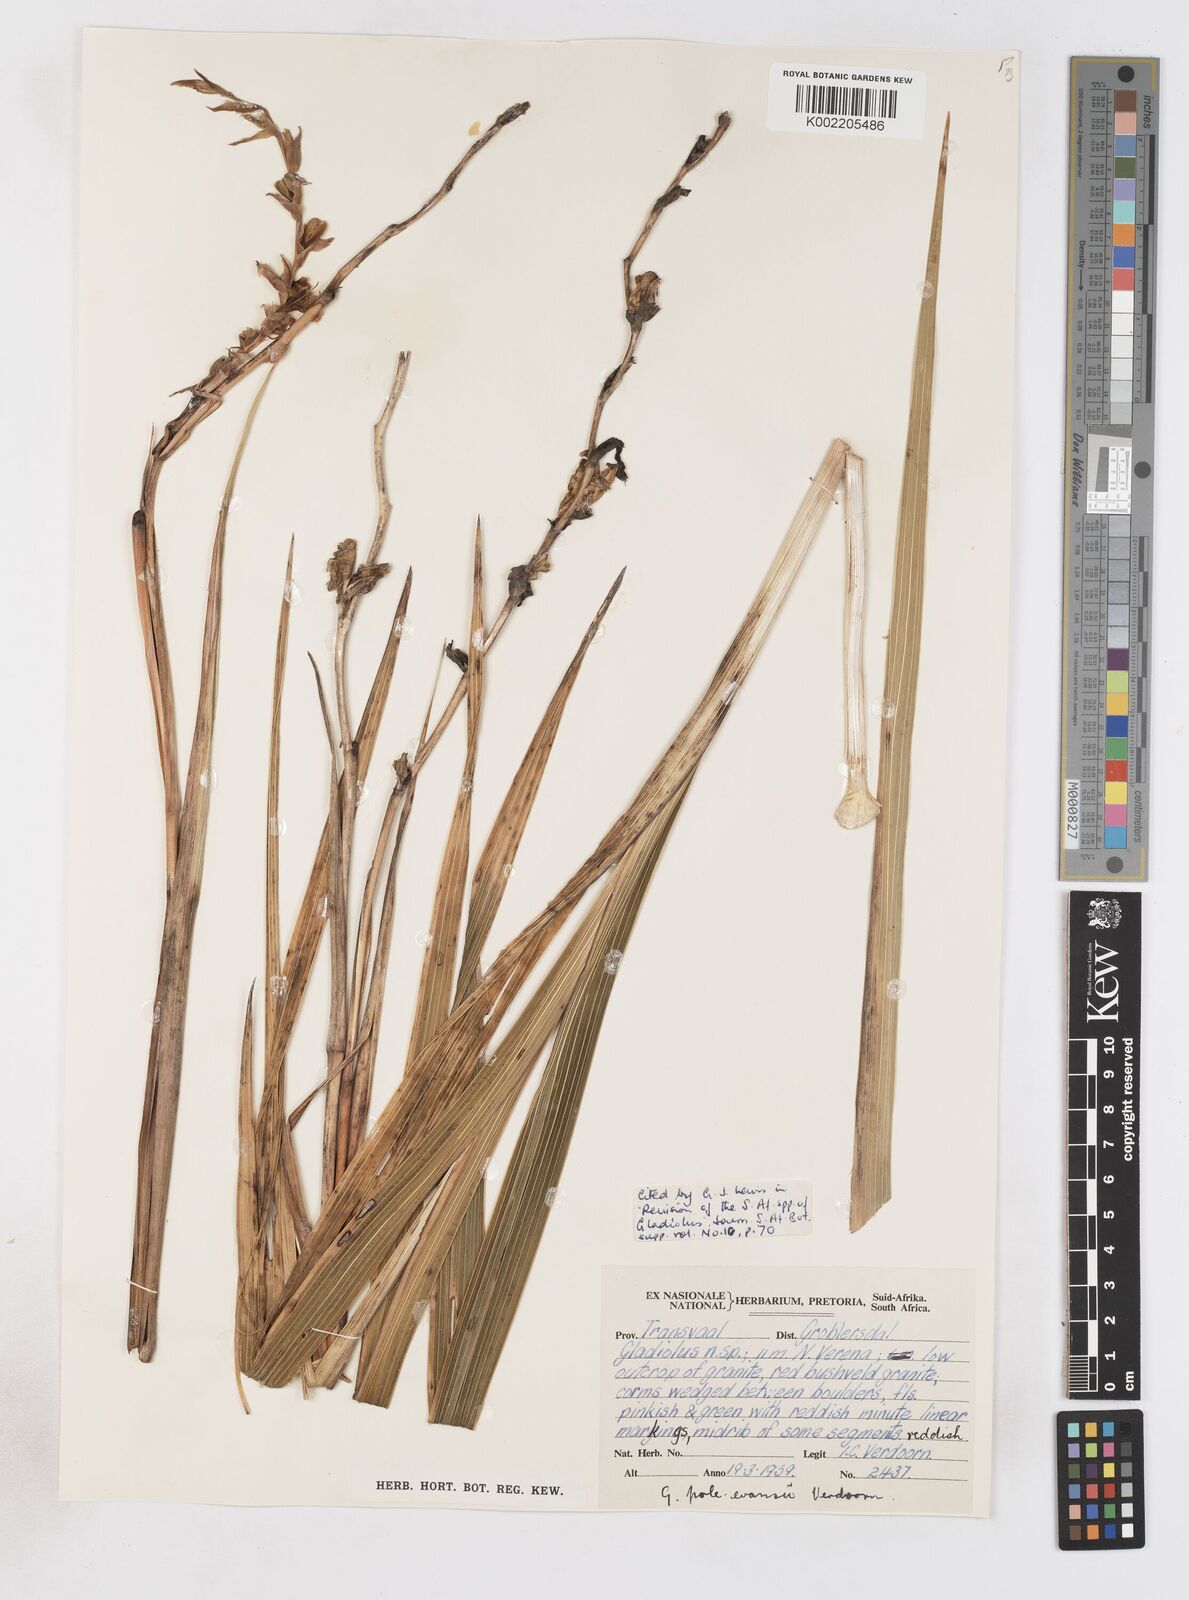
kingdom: Plantae
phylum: Tracheophyta
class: Liliopsida
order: Asparagales
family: Iridaceae
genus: Gladiolus
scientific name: Gladiolus pole-evansii
